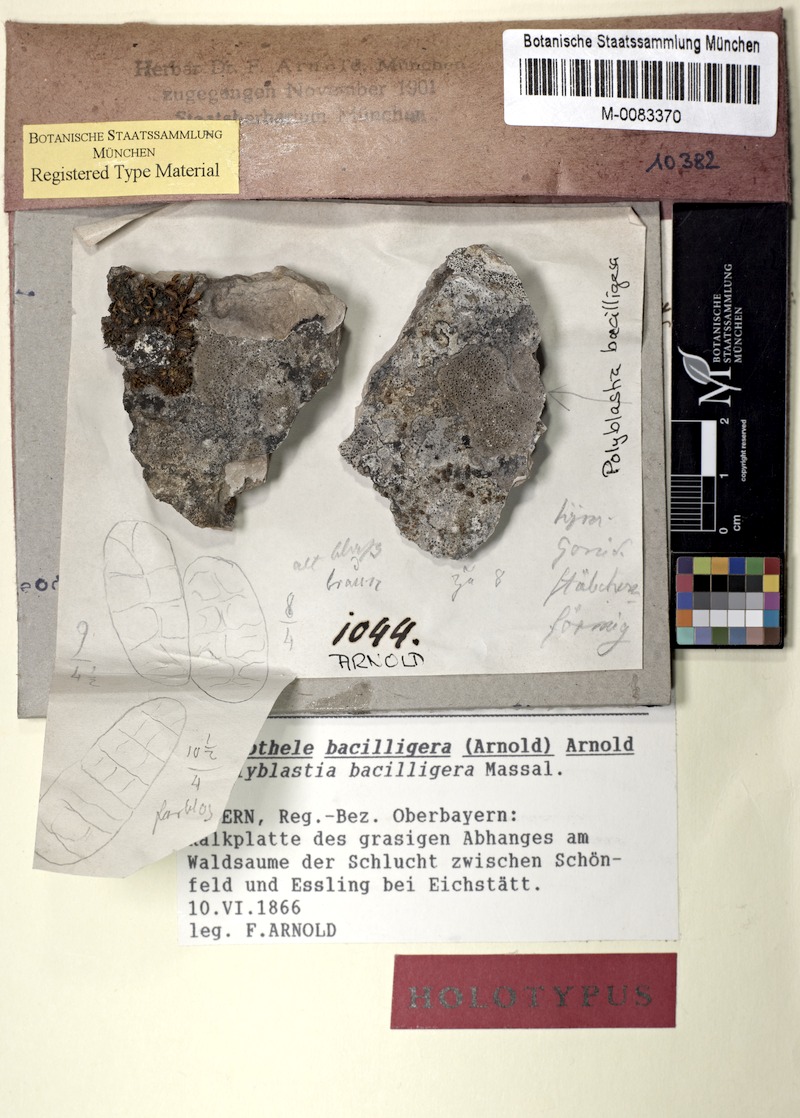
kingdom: Fungi
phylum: Ascomycota
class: Eurotiomycetes
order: Verrucariales
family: Verrucariaceae
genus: Staurothele
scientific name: Staurothele bacilligera
